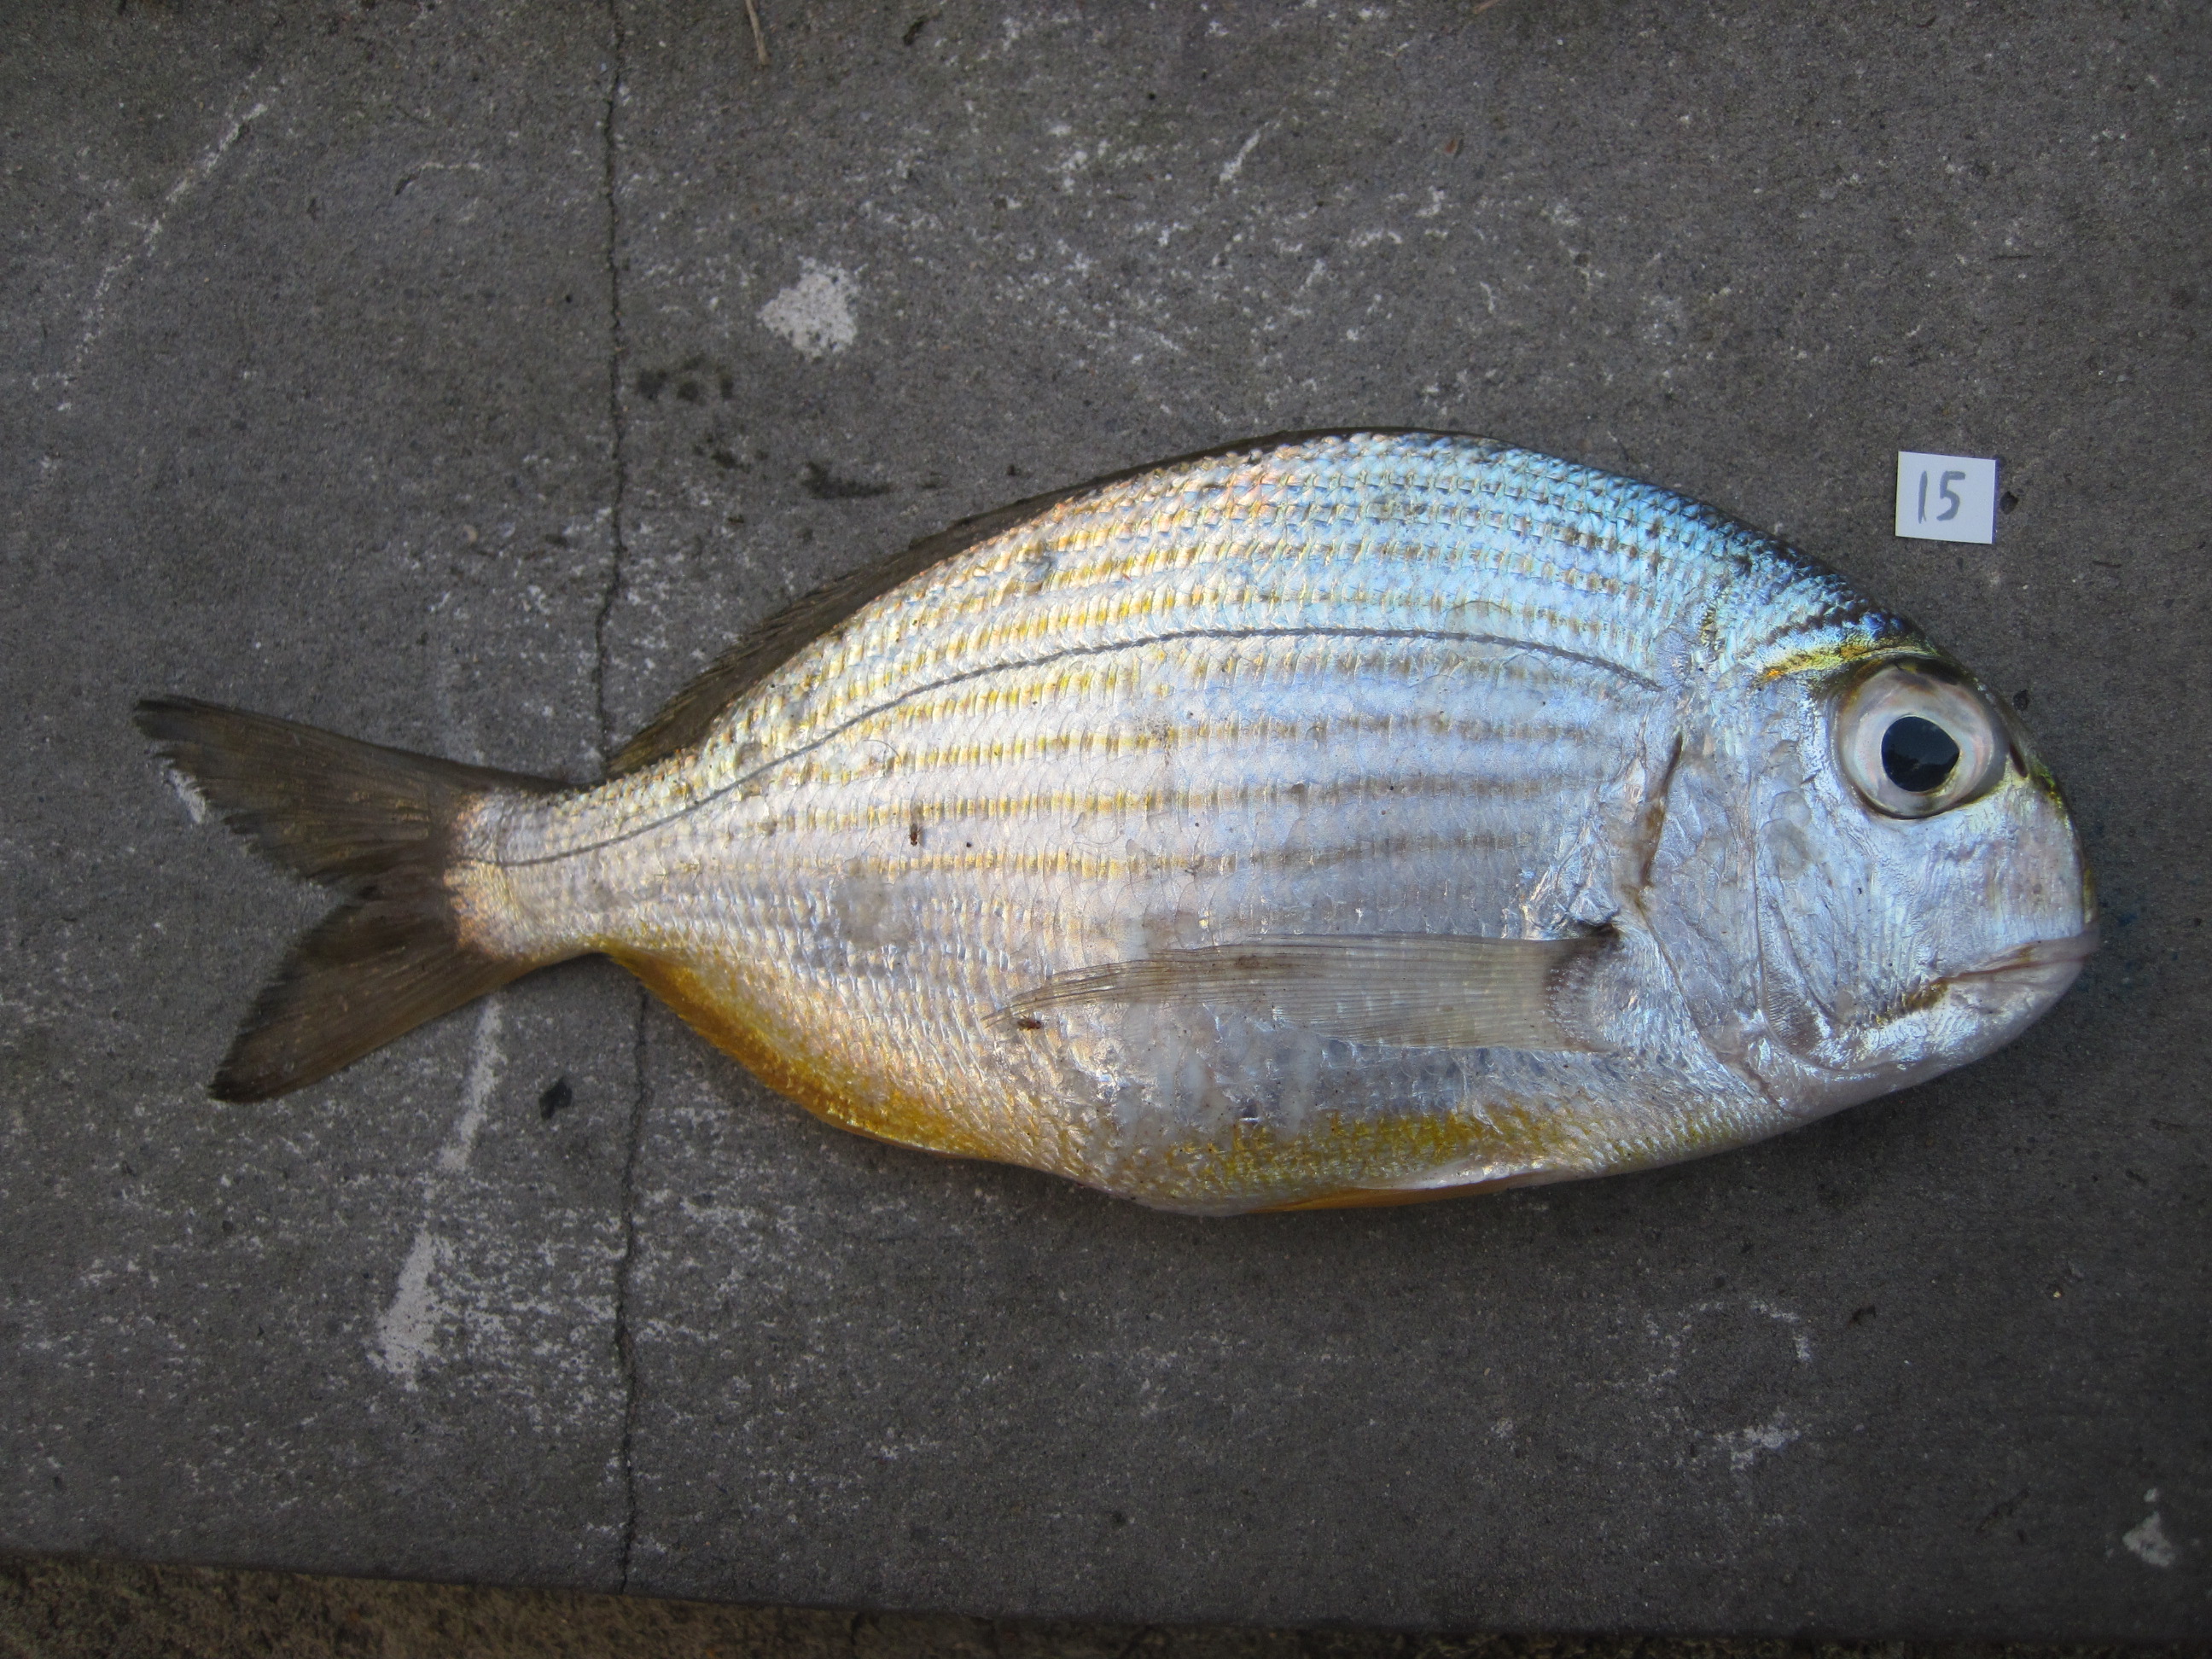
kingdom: Animalia
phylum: Chordata
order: Perciformes
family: Sparidae
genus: Rhabdosargus
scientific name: Rhabdosargus thorpei
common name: Bigeye stumpnose
